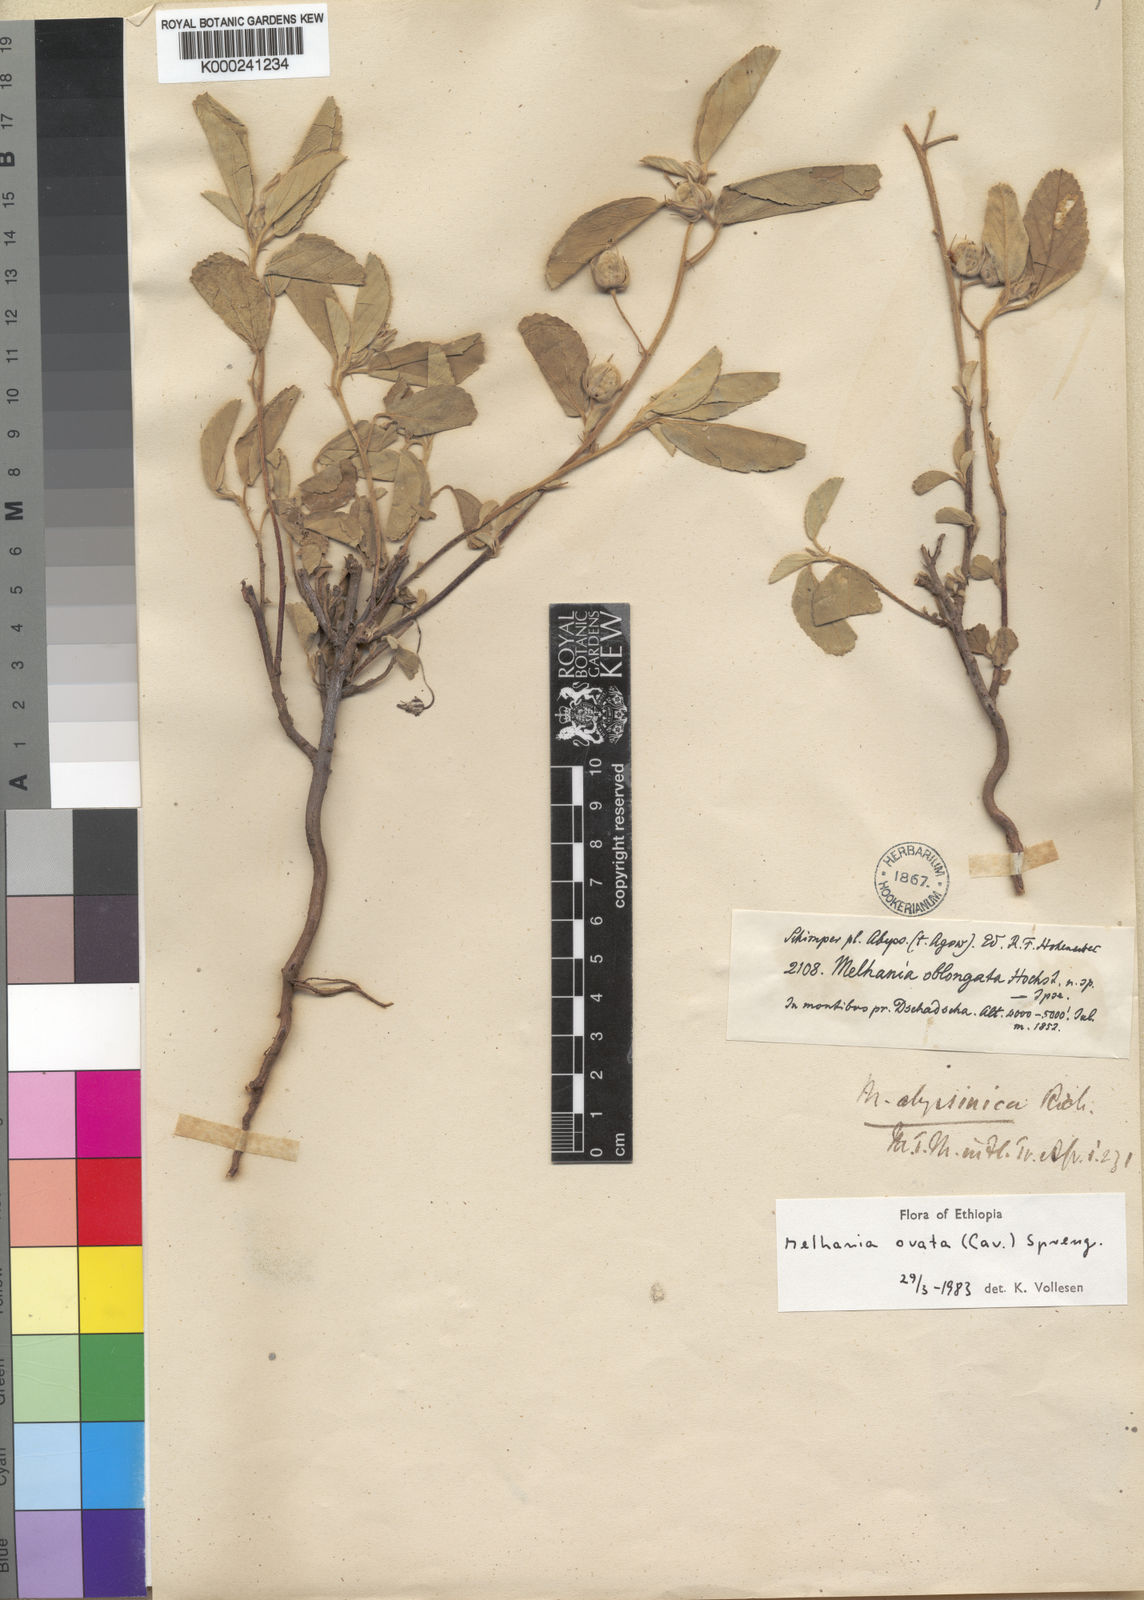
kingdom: Plantae
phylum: Tracheophyta
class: Magnoliopsida
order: Malvales
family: Malvaceae
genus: Melhania
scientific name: Melhania ovata
